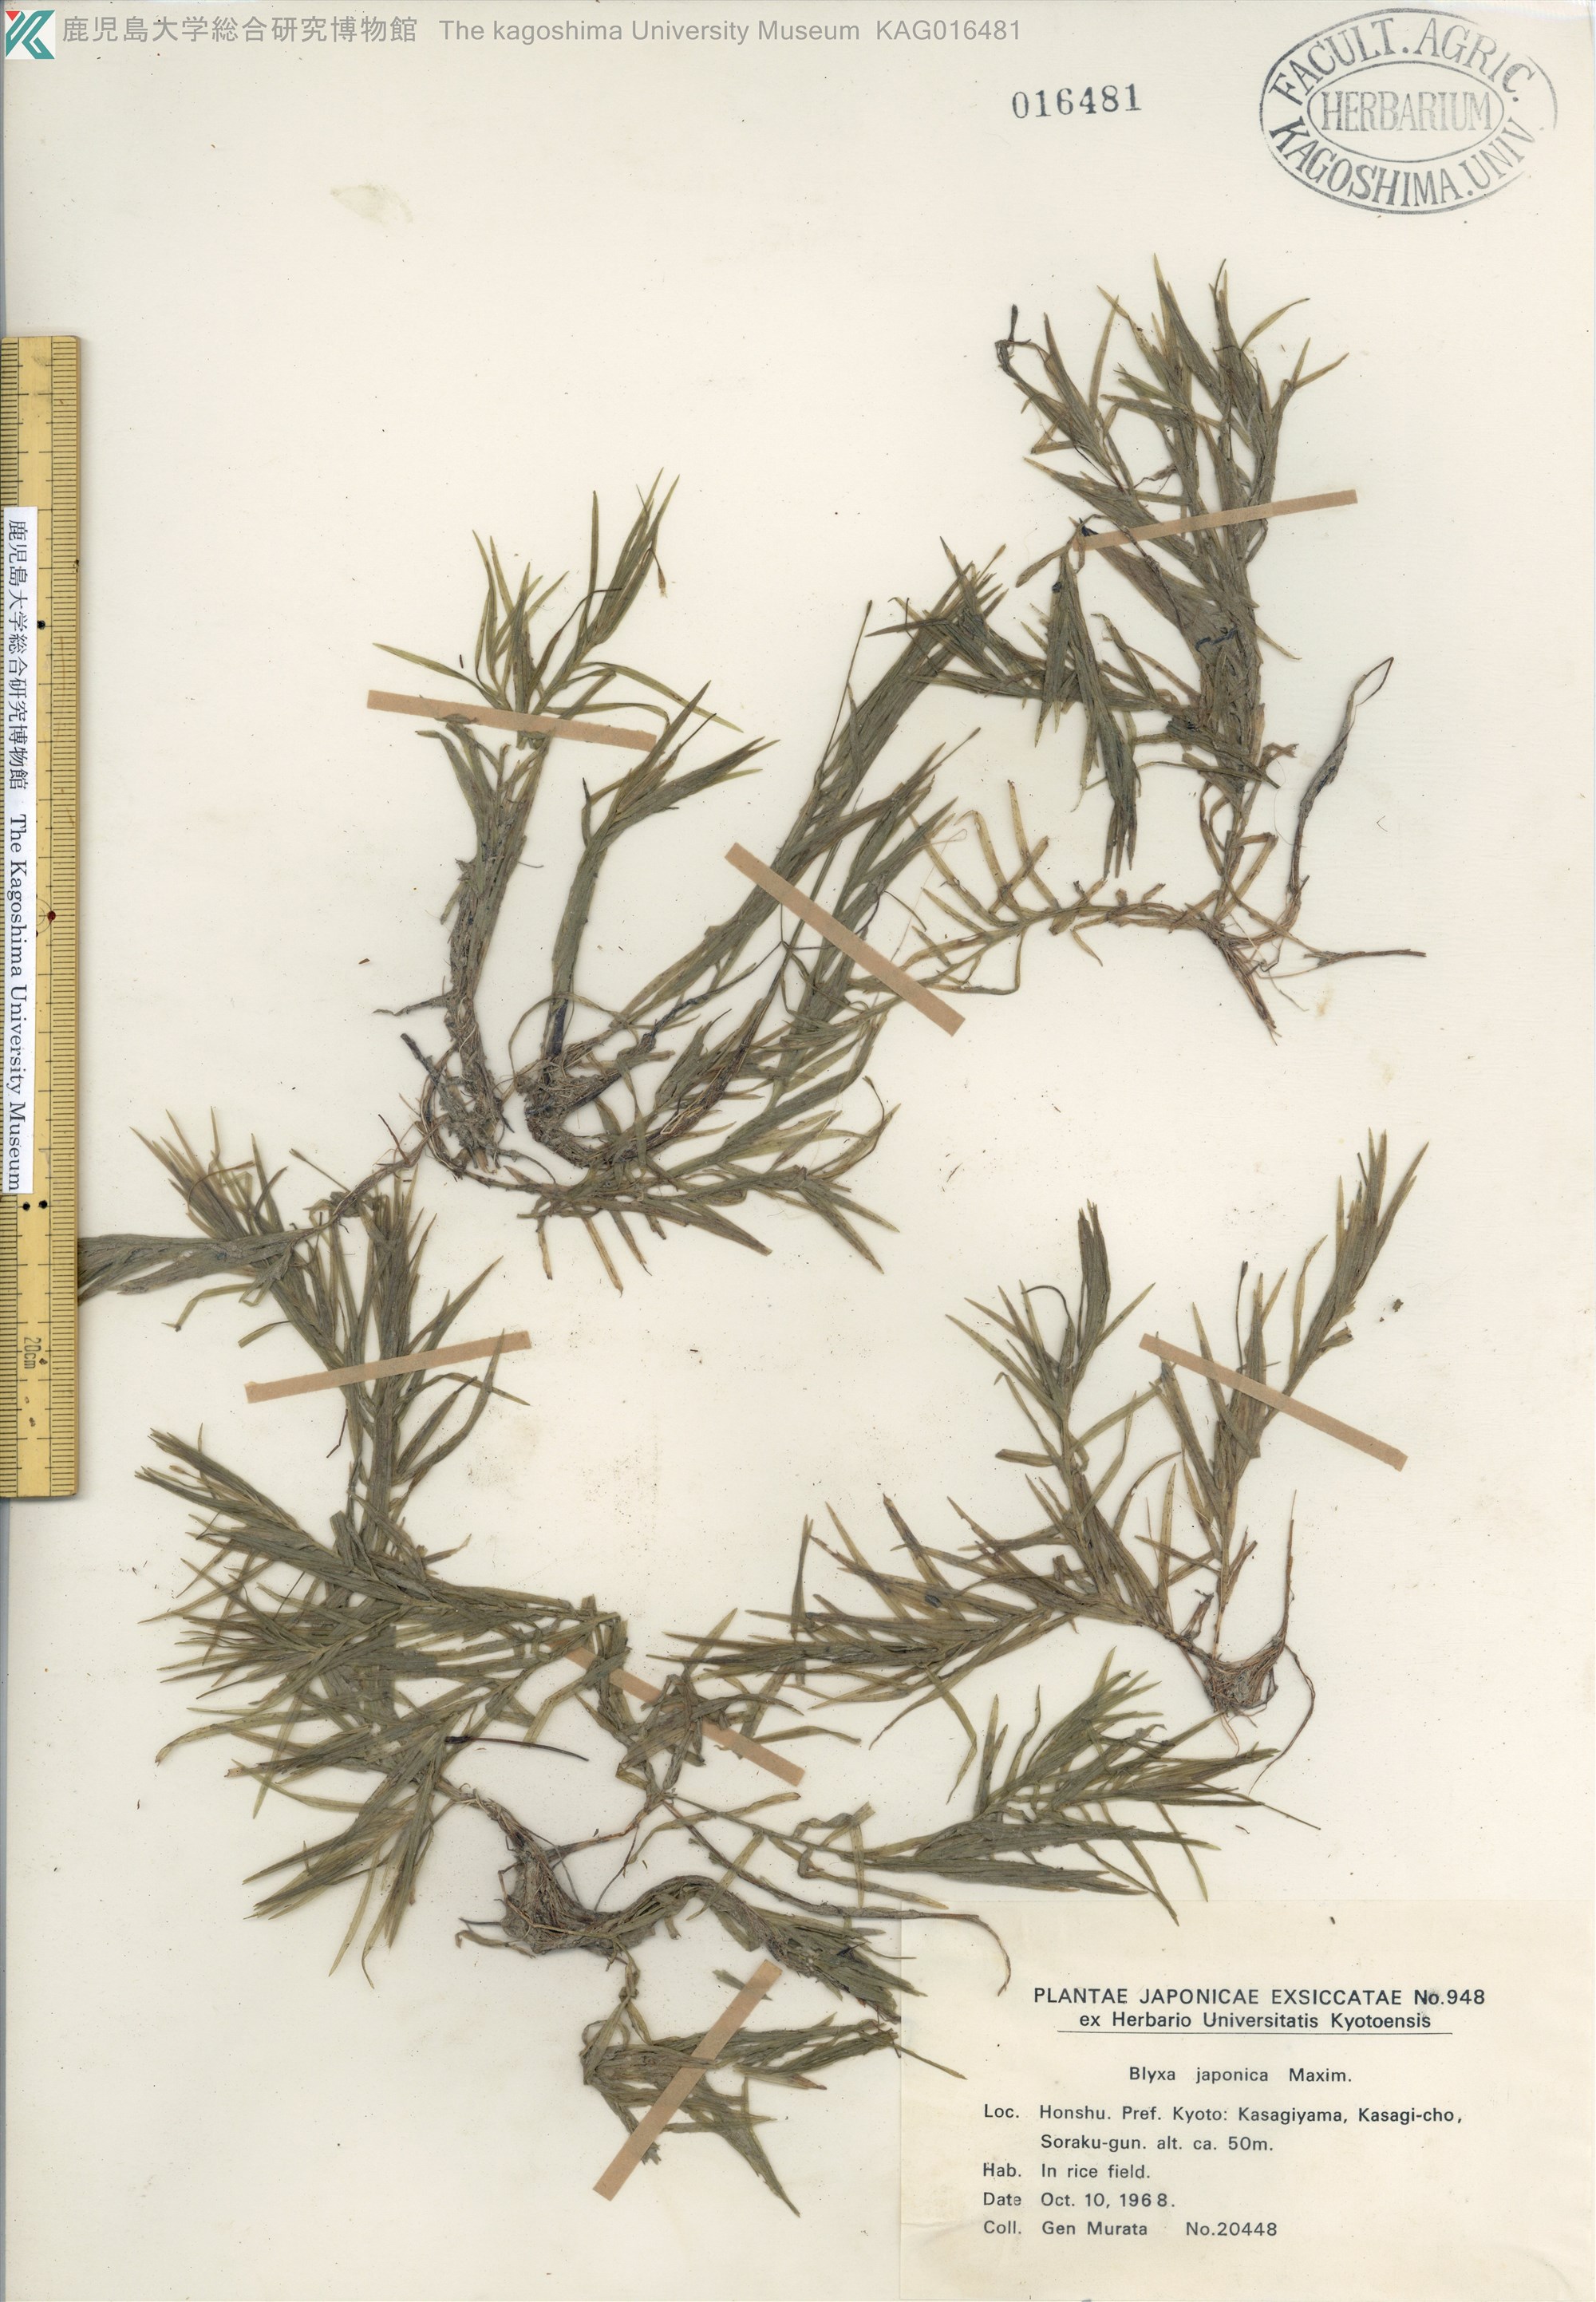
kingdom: Plantae
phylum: Tracheophyta
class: Liliopsida
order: Alismatales
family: Hydrocharitaceae
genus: Blyxa
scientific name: Blyxa japonica
